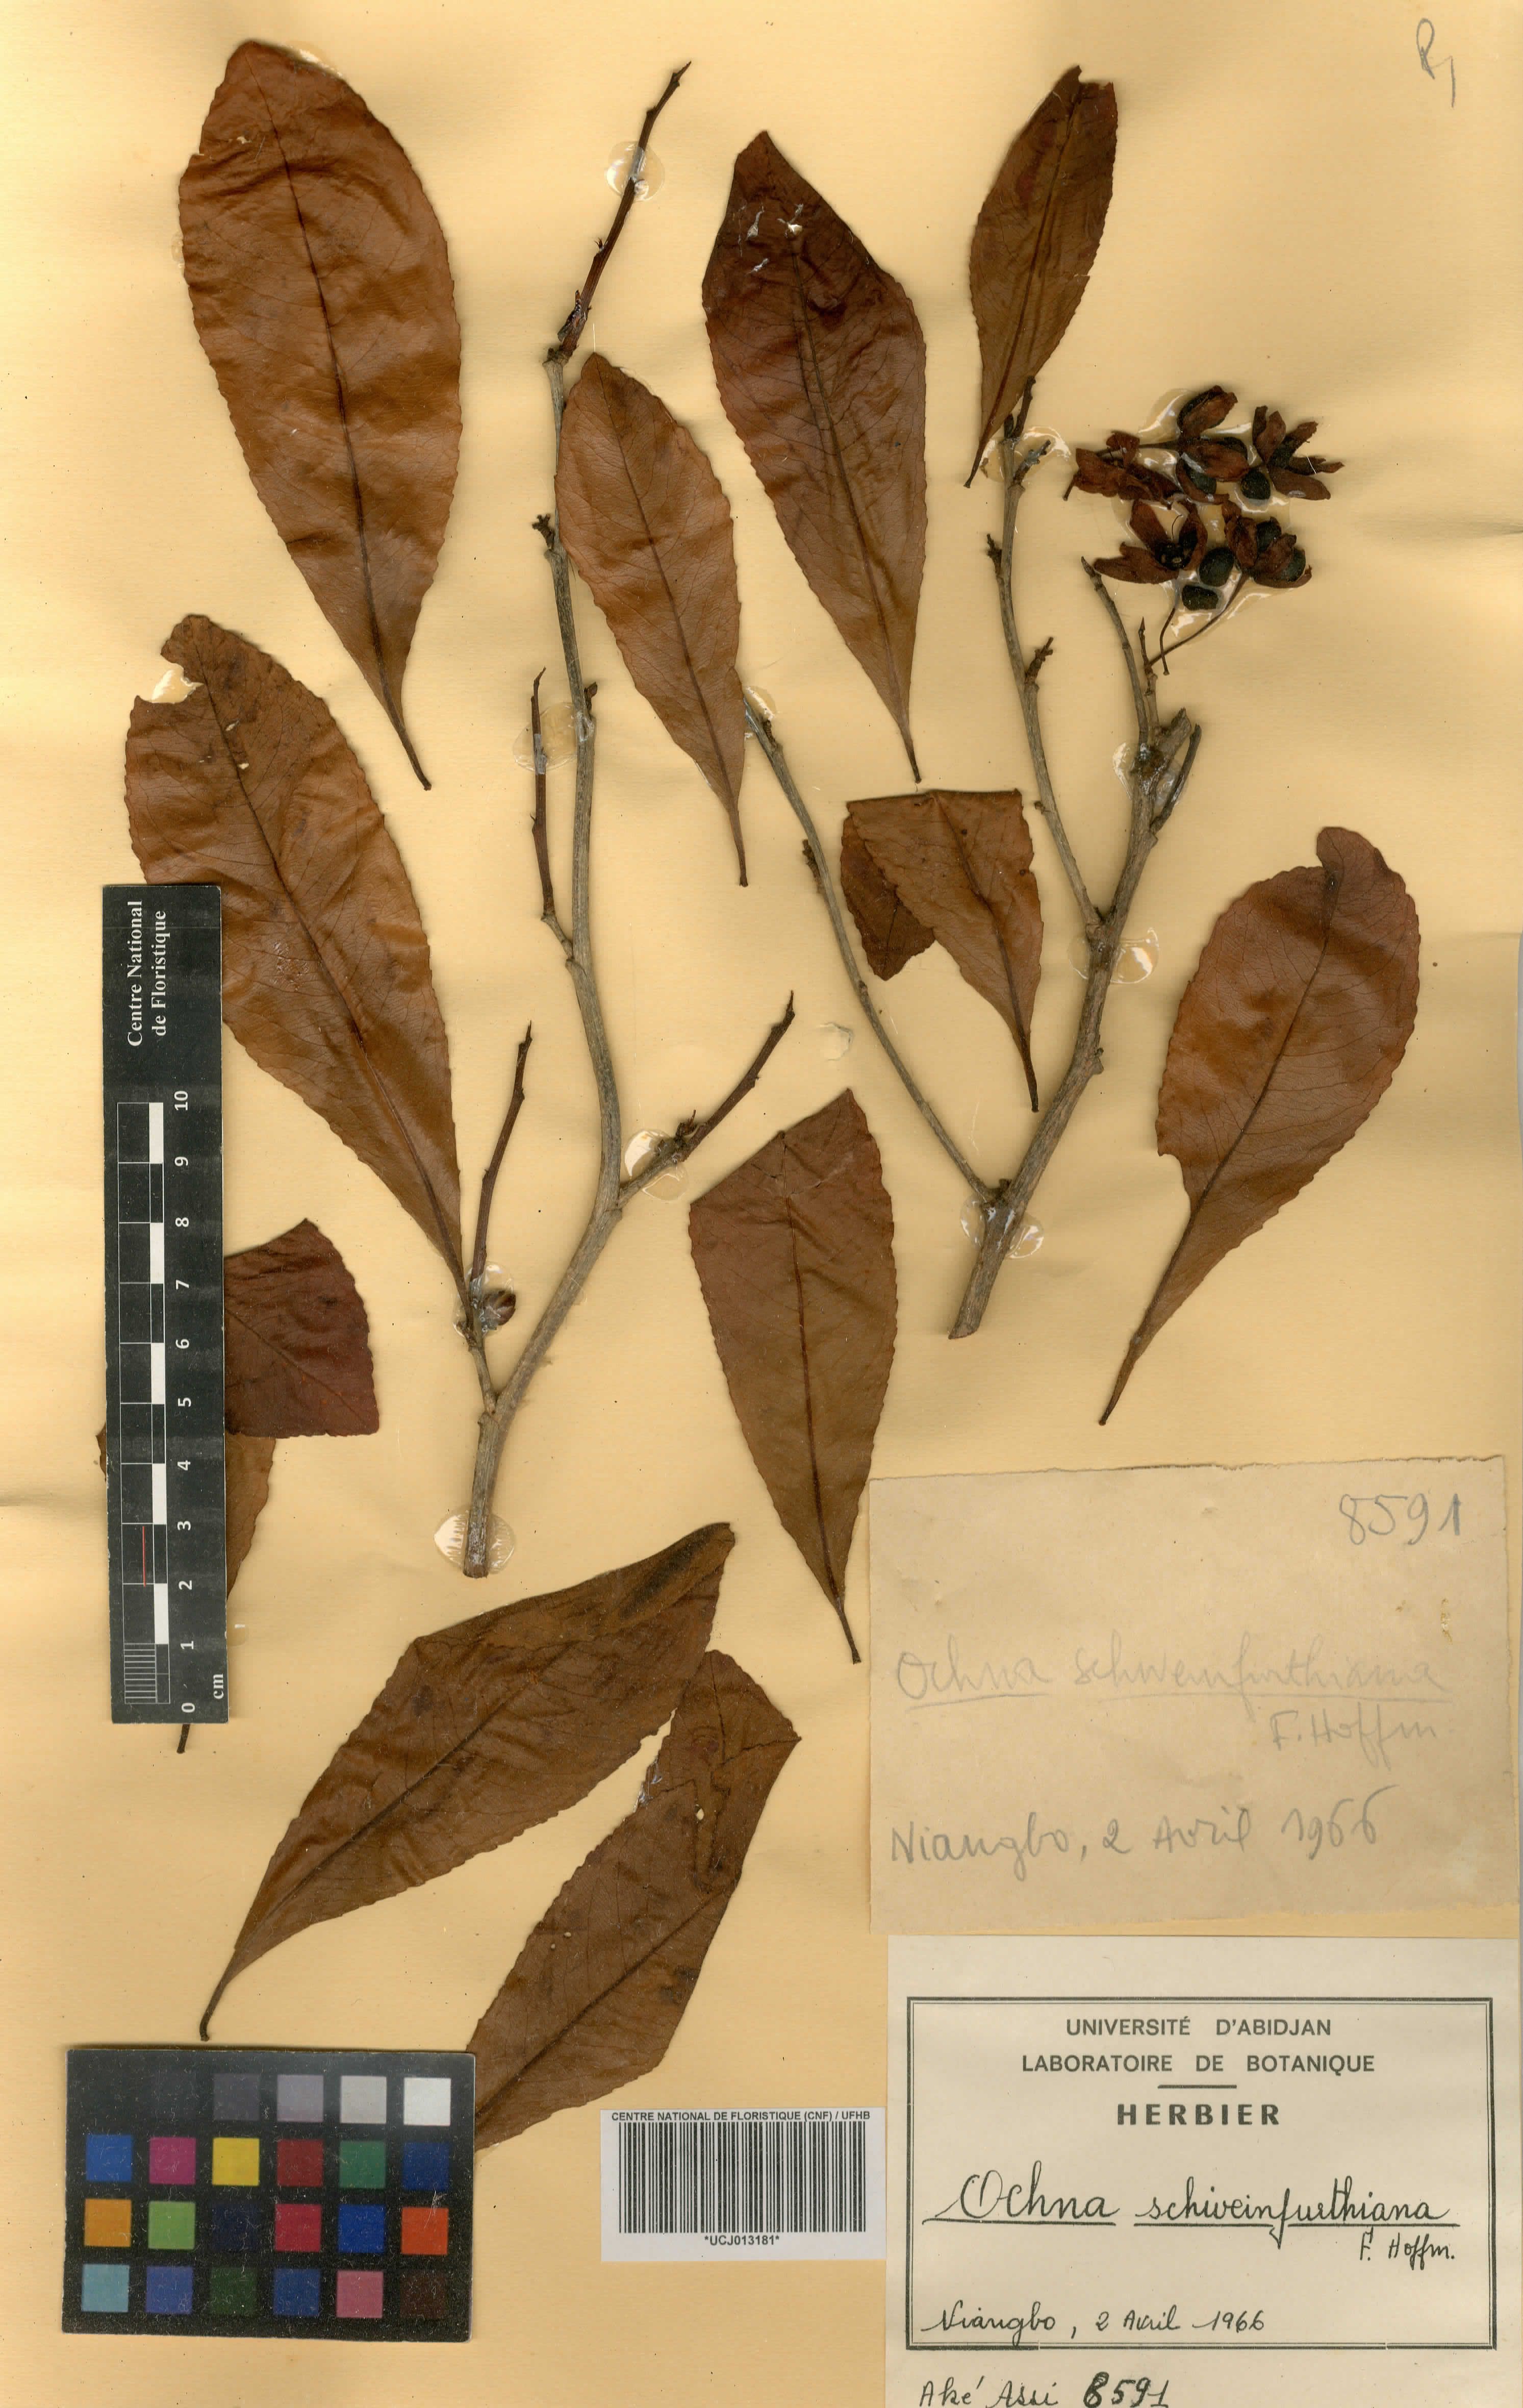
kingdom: Plantae
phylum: Tracheophyta
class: Magnoliopsida
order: Malpighiales
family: Ochnaceae
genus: Ochna
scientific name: Ochna schweinfurthiana
